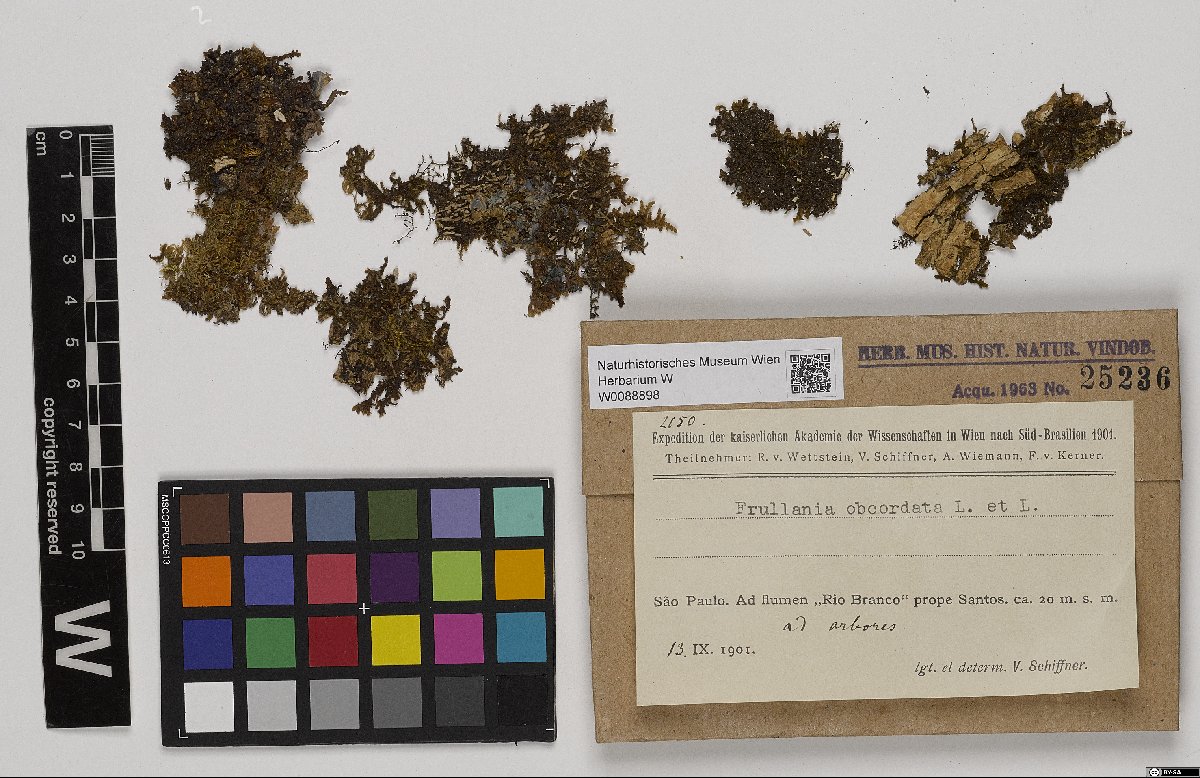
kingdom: Plantae
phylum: Marchantiophyta
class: Jungermanniopsida
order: Porellales
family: Frullaniaceae
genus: Frullania
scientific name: Frullania obcordata
